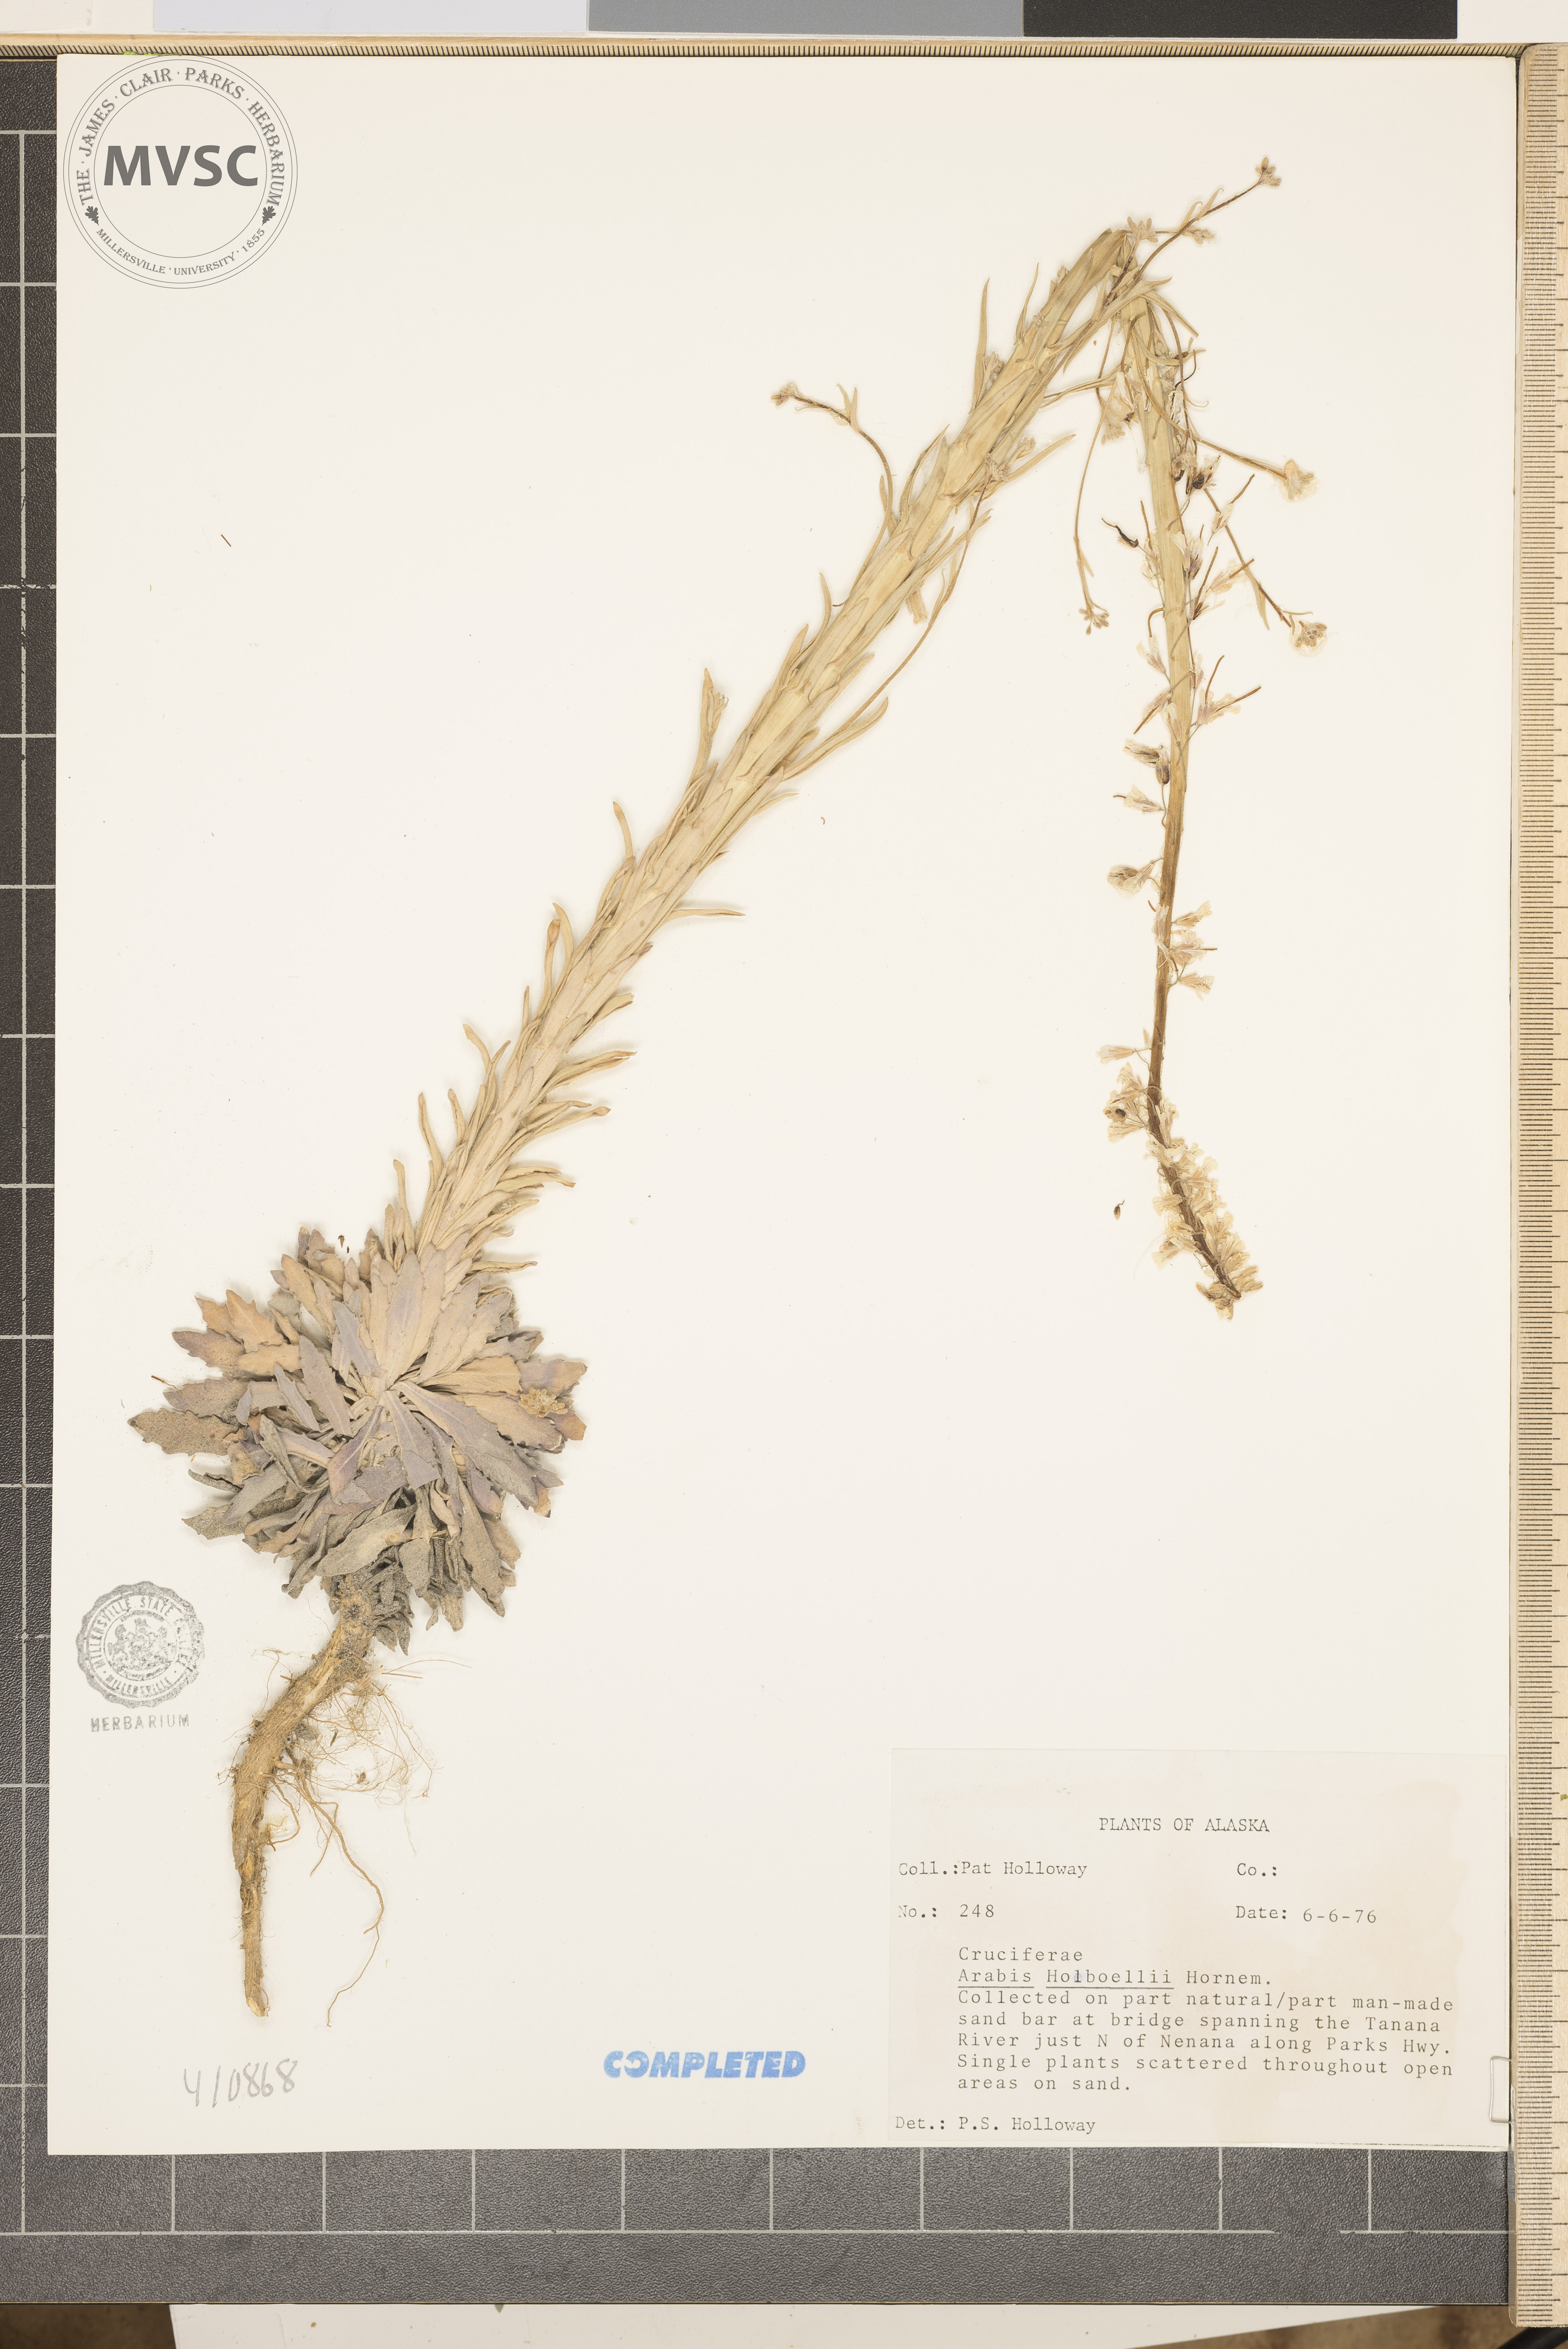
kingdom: Plantae
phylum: Tracheophyta
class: Magnoliopsida
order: Brassicales
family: Brassicaceae
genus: Boechera
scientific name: Boechera holboellii
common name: Holboell's rockcress
